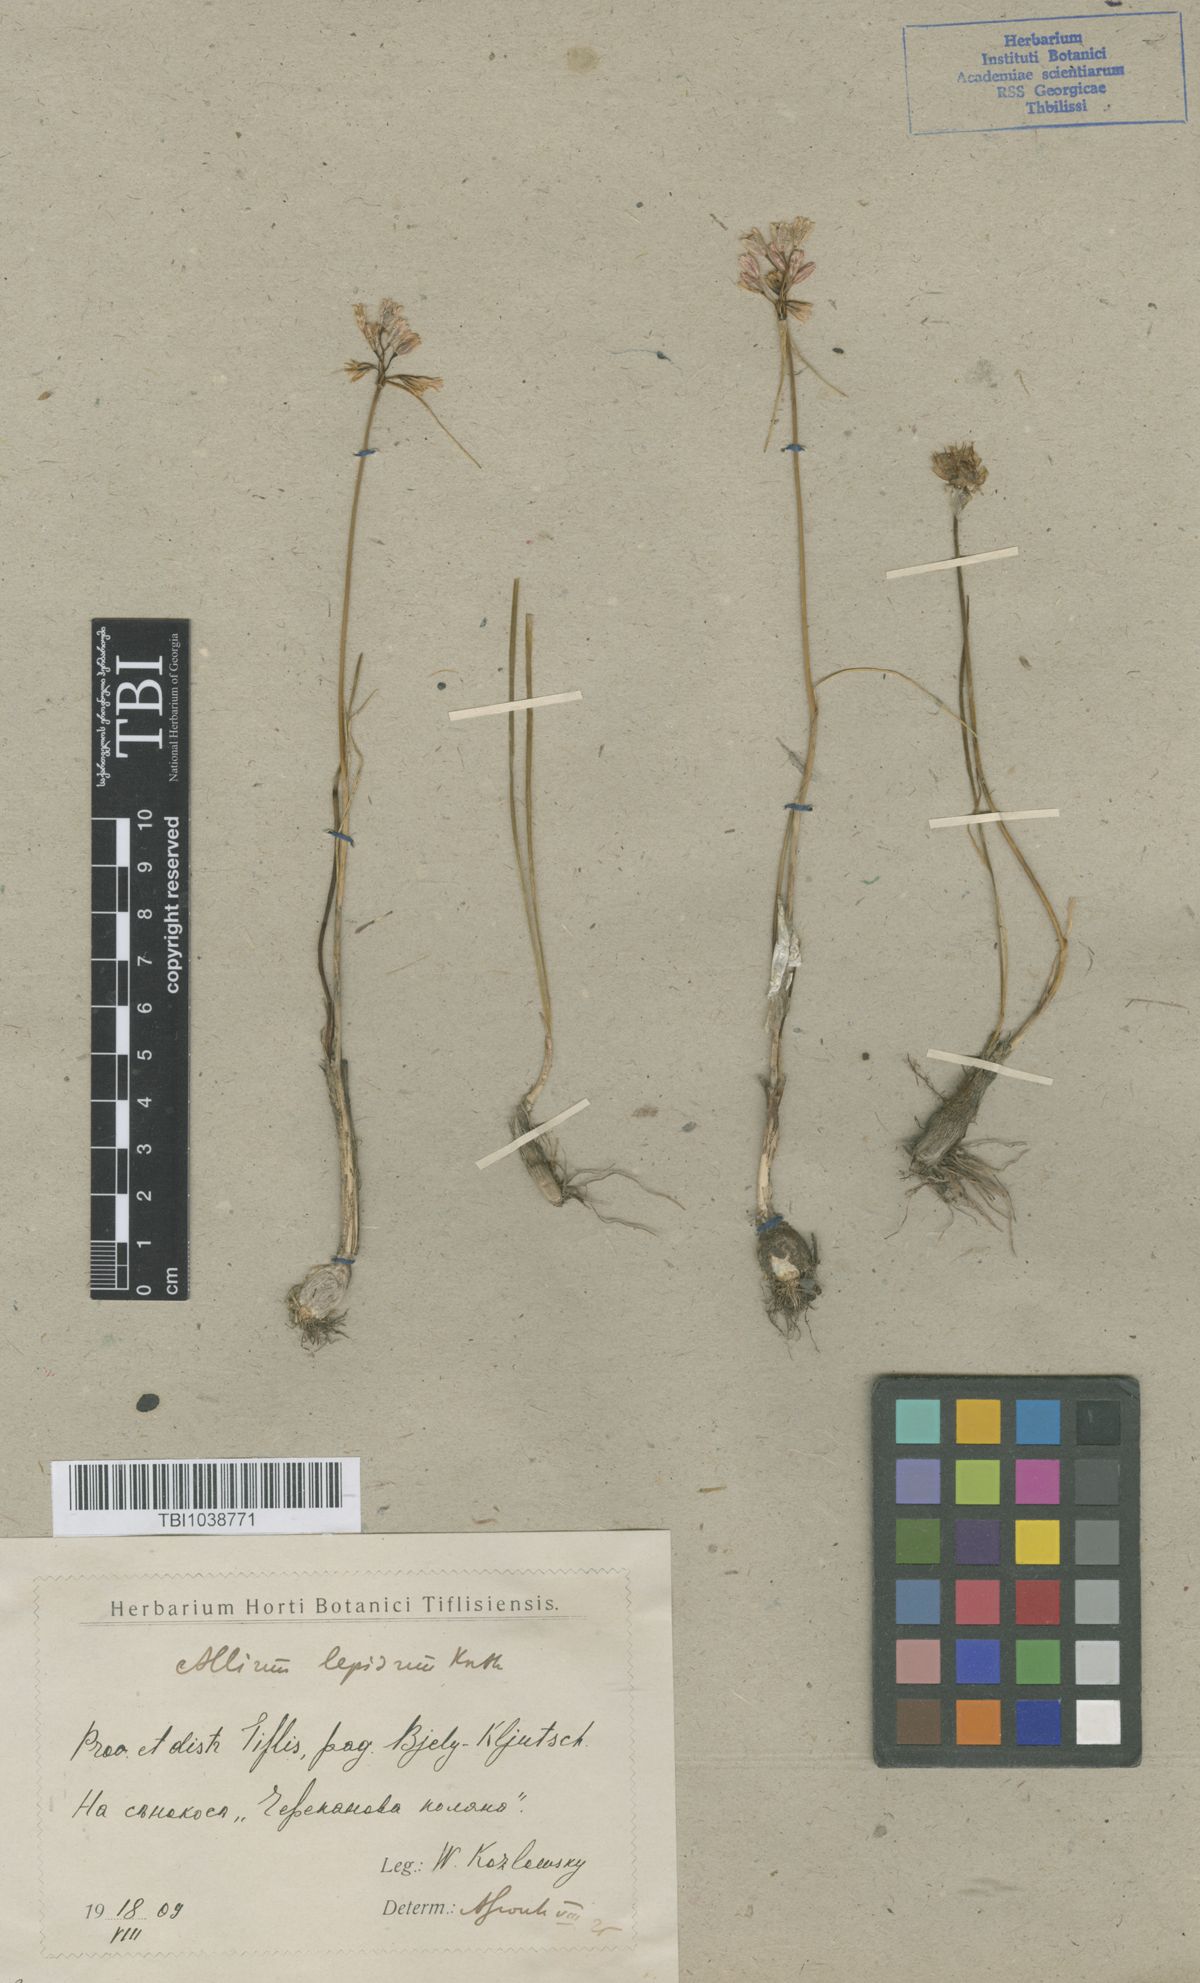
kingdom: Plantae
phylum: Tracheophyta
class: Liliopsida
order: Asparagales
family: Amaryllidaceae
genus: Allium
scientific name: Allium kunthianum
